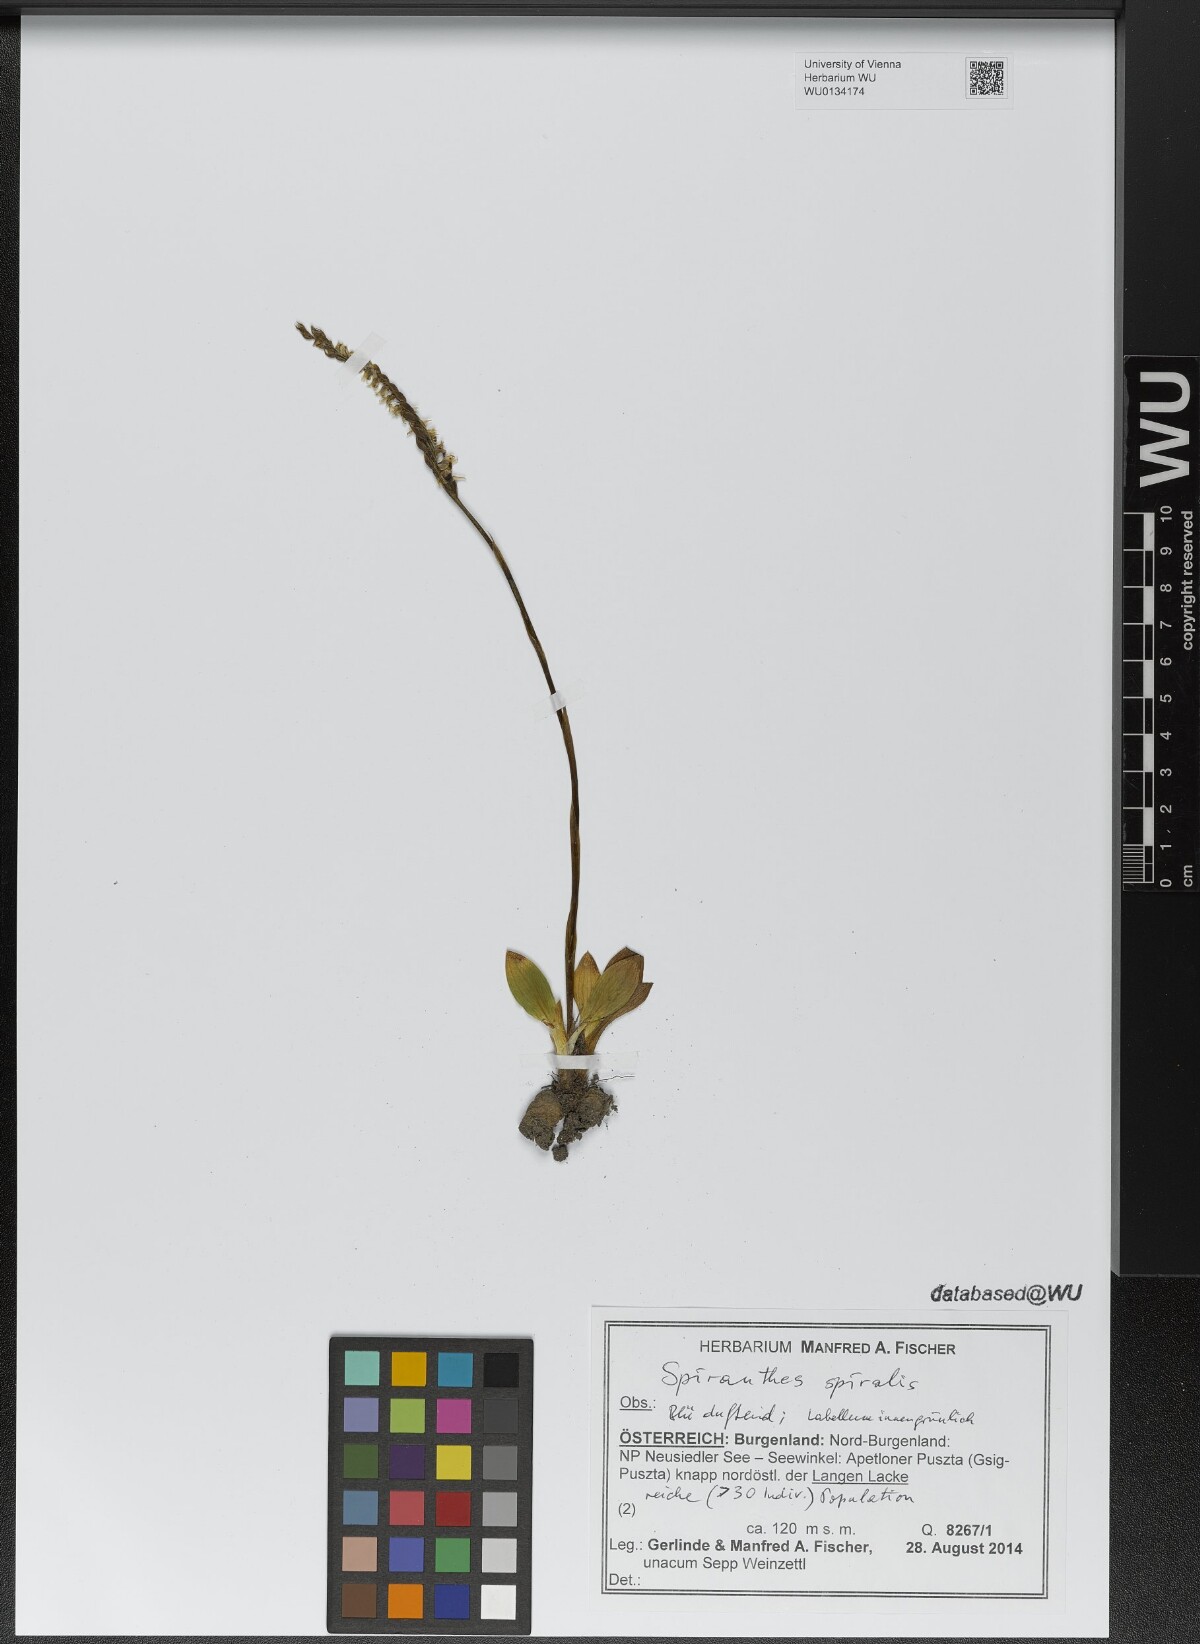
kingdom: Plantae
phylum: Tracheophyta
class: Liliopsida
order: Asparagales
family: Orchidaceae
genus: Spiranthes
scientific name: Spiranthes spiralis
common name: Autumn lady's-tresses
